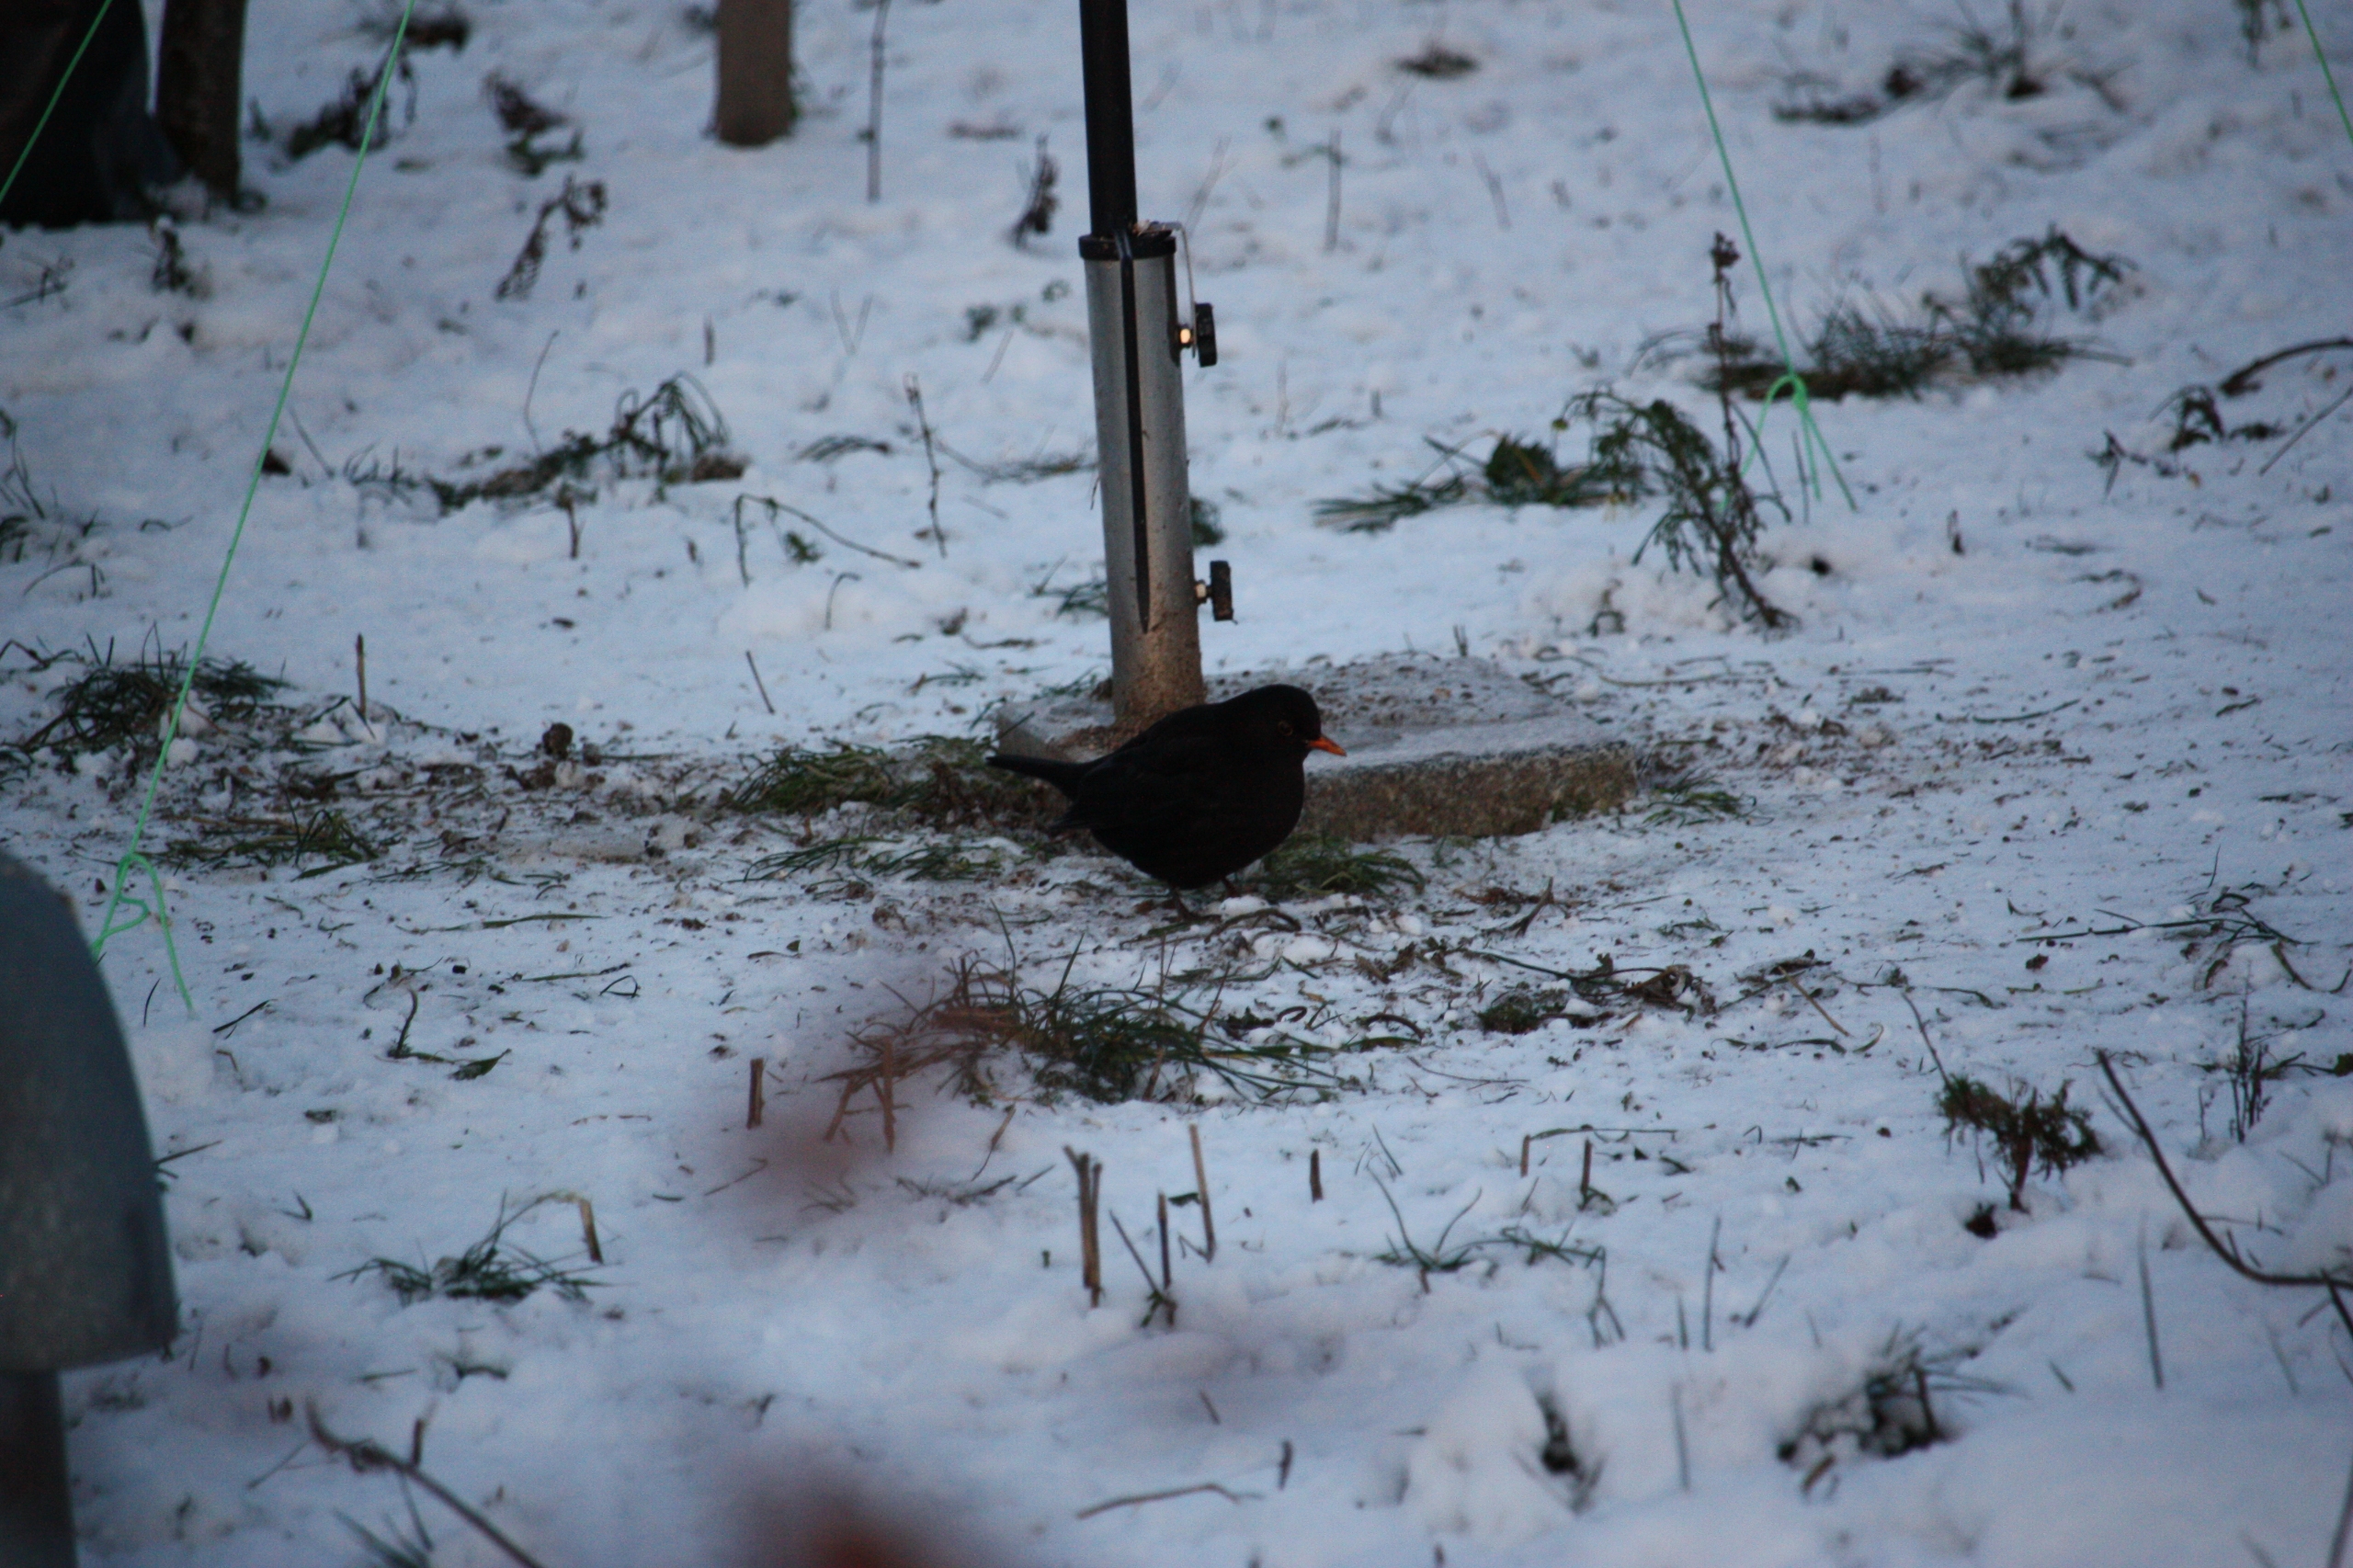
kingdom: Animalia
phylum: Chordata
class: Aves
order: Passeriformes
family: Turdidae
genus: Turdus
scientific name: Turdus merula
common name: Solsort
